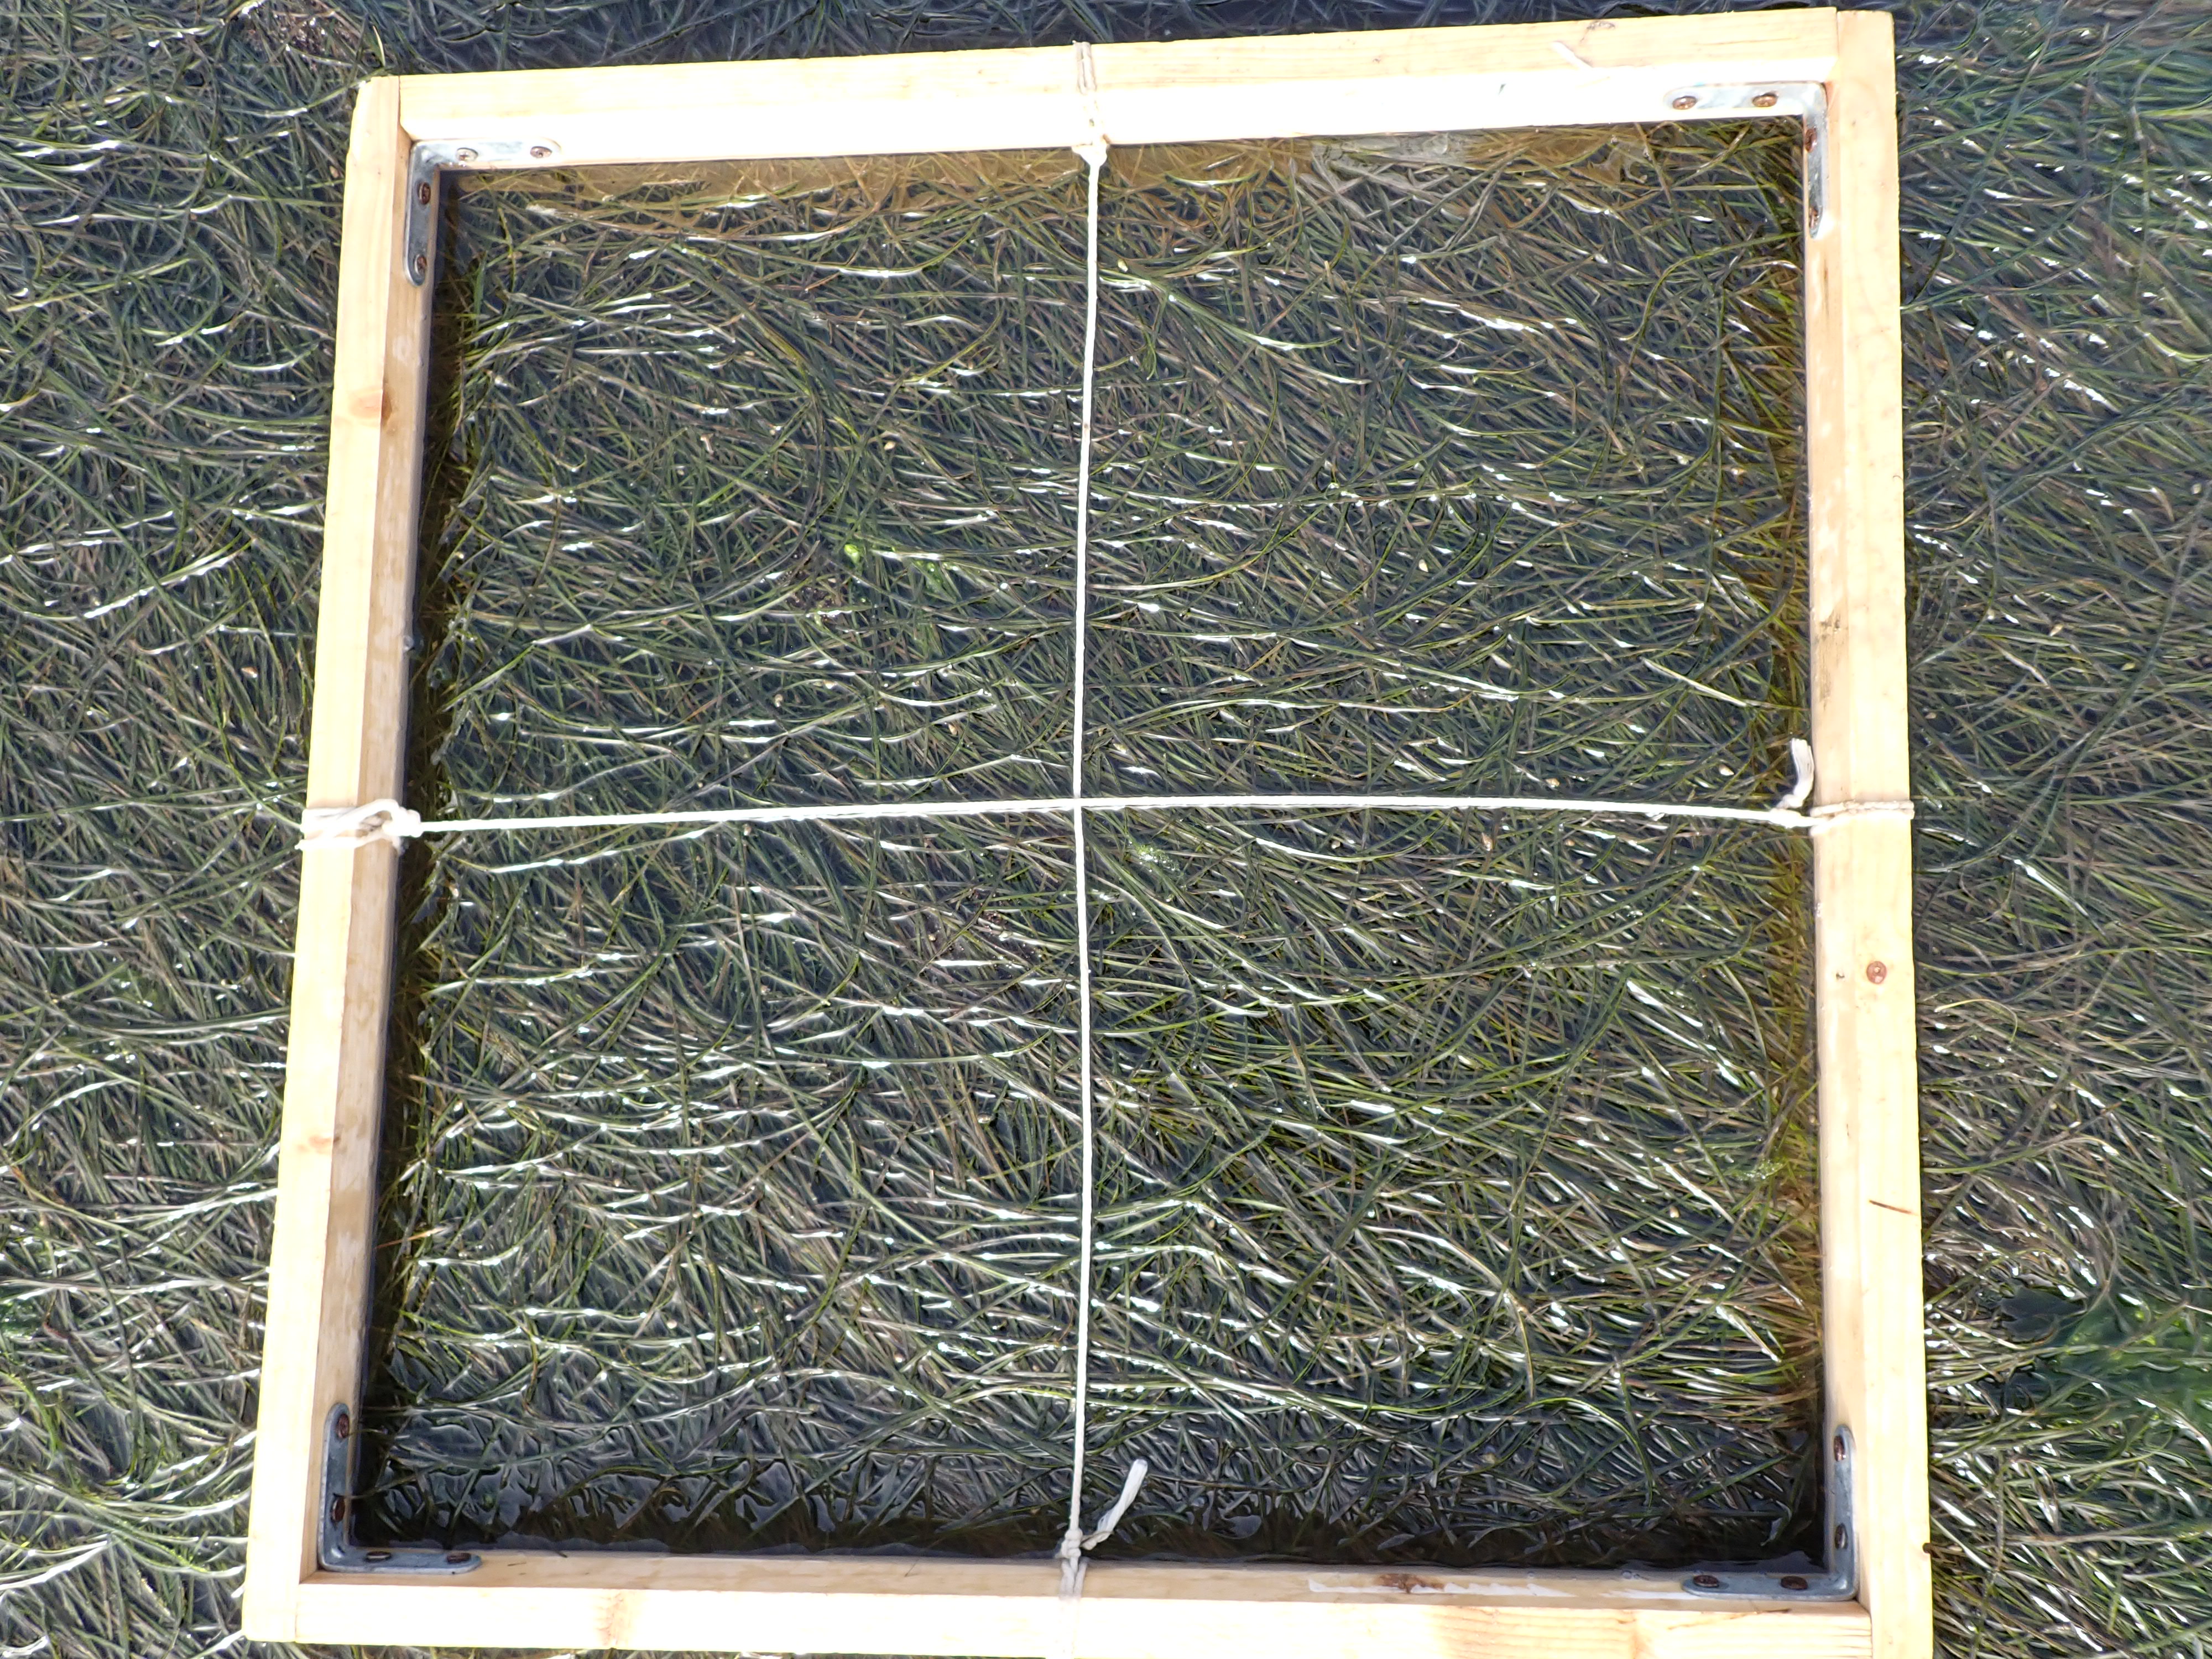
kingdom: Plantae
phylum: Tracheophyta
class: Liliopsida
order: Alismatales
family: Zosteraceae
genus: Zostera
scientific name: Zostera noltii
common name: Dwarf eelgrass
